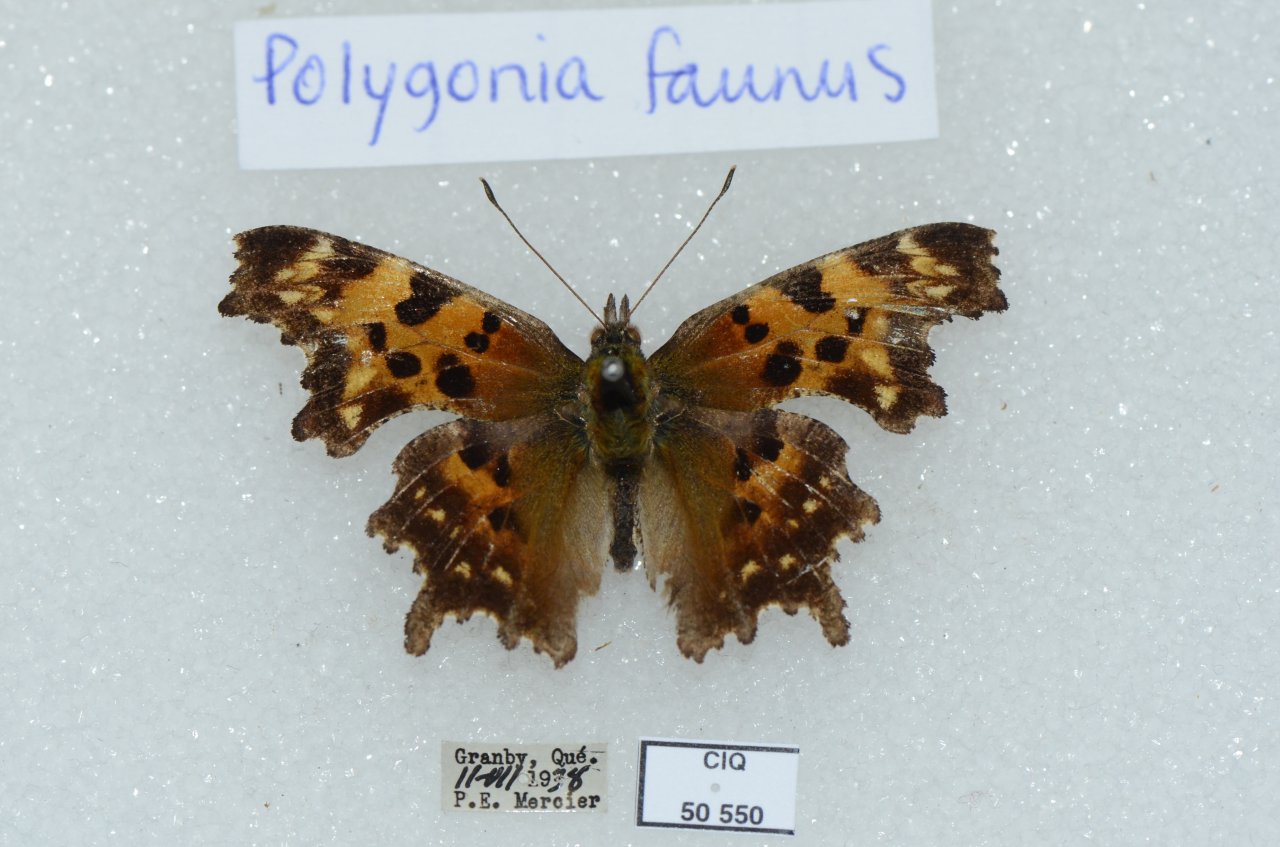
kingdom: Animalia
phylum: Arthropoda
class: Insecta
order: Lepidoptera
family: Nymphalidae
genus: Polygonia
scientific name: Polygonia faunus
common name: Green Comma
